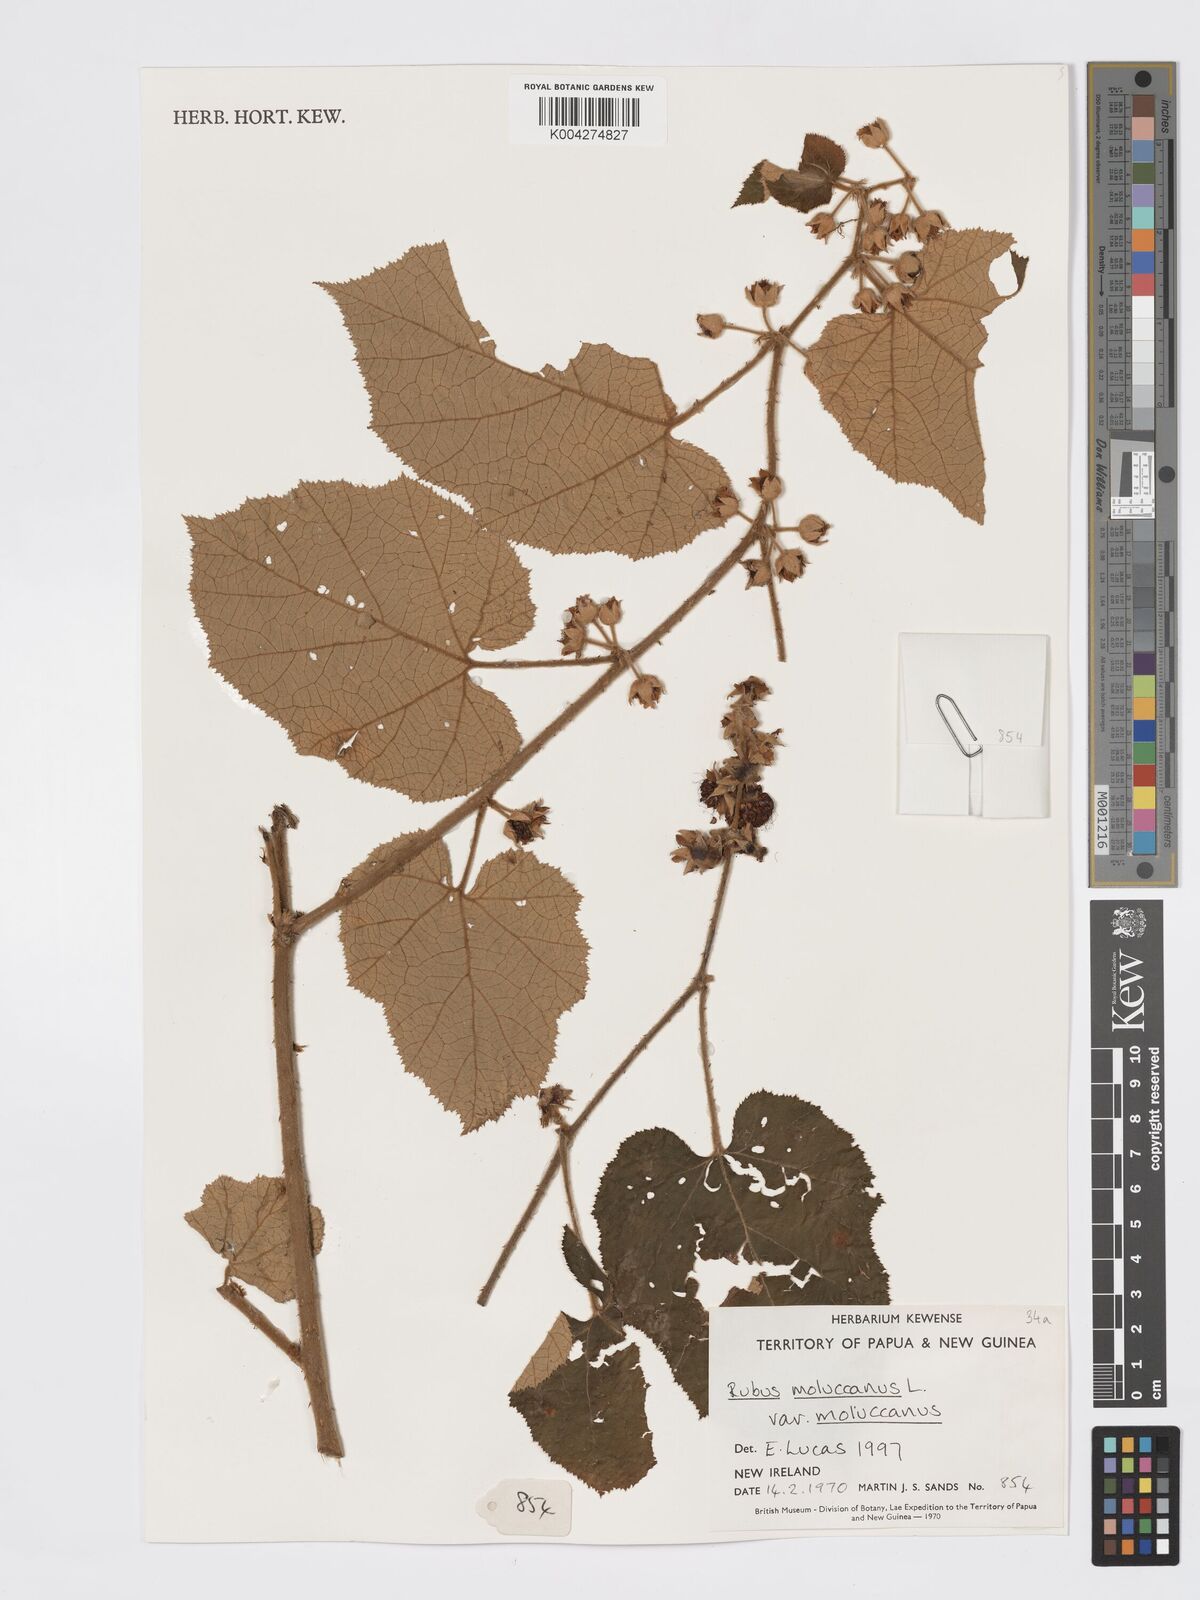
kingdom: Plantae
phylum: Tracheophyta
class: Magnoliopsida
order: Rosales
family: Rosaceae
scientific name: Rosaceae
